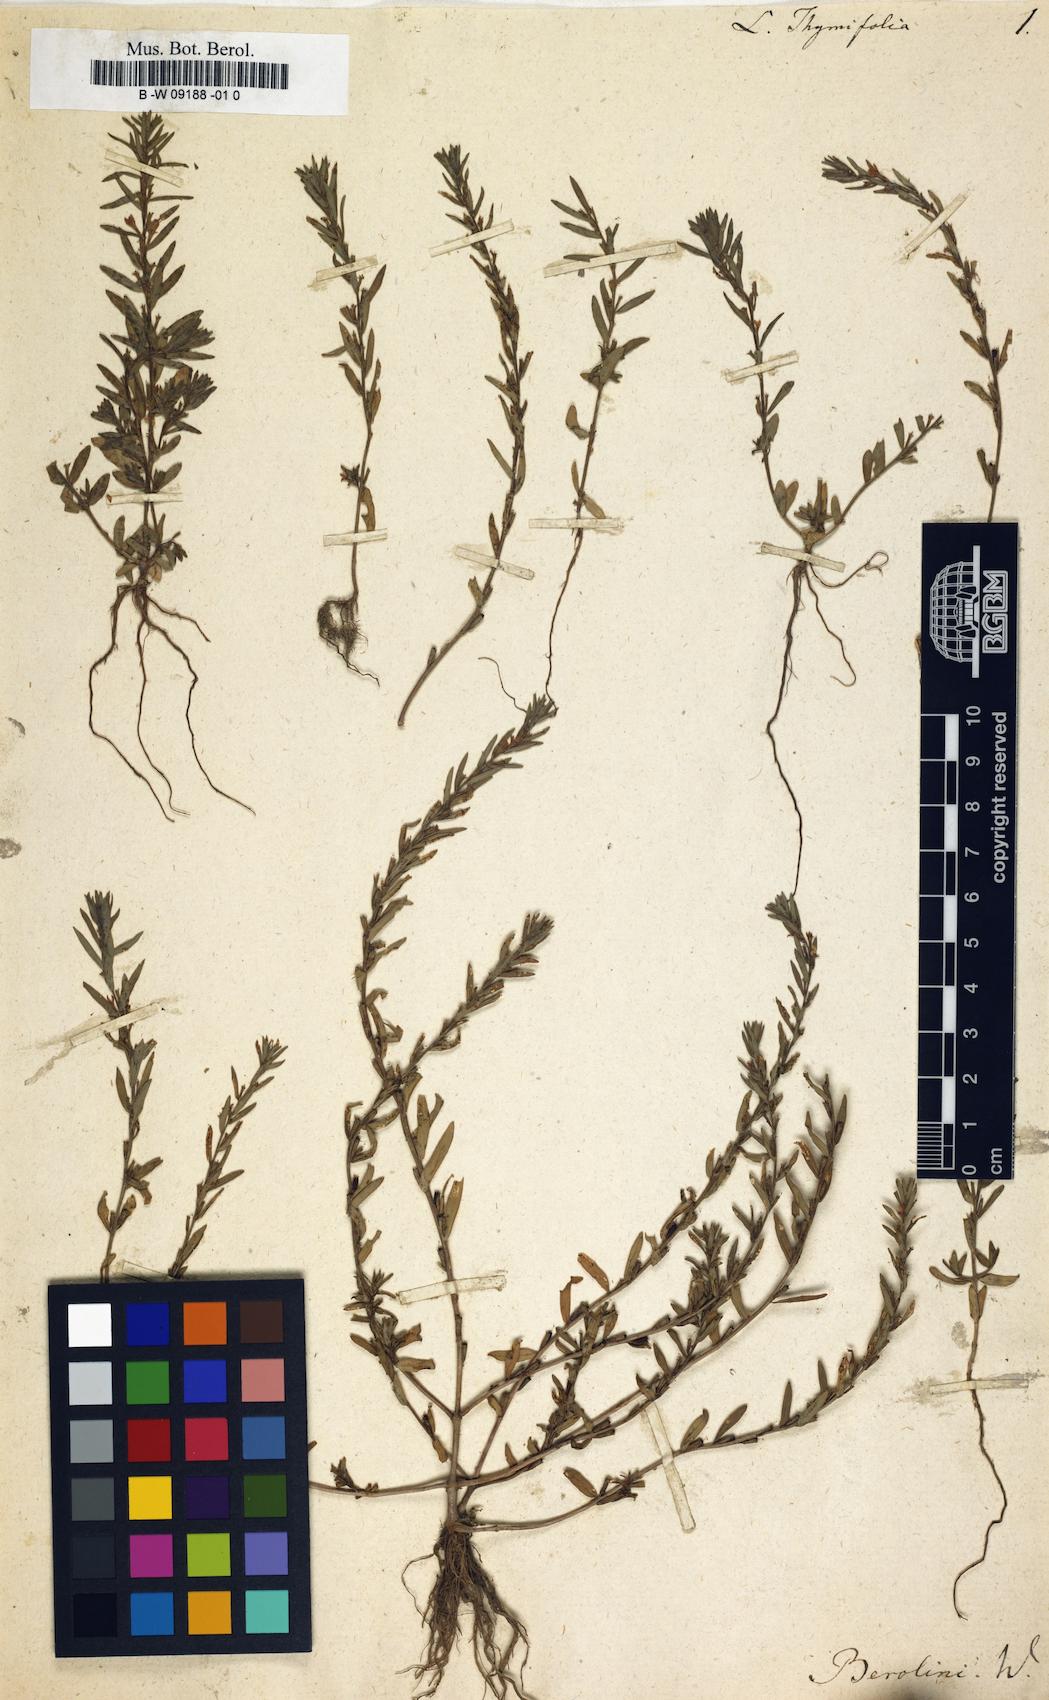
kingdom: Plantae
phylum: Tracheophyta
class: Magnoliopsida
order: Myrtales
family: Lythraceae
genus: Lythrum
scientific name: Lythrum thymifolia
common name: Thymeleaf loosestrife
